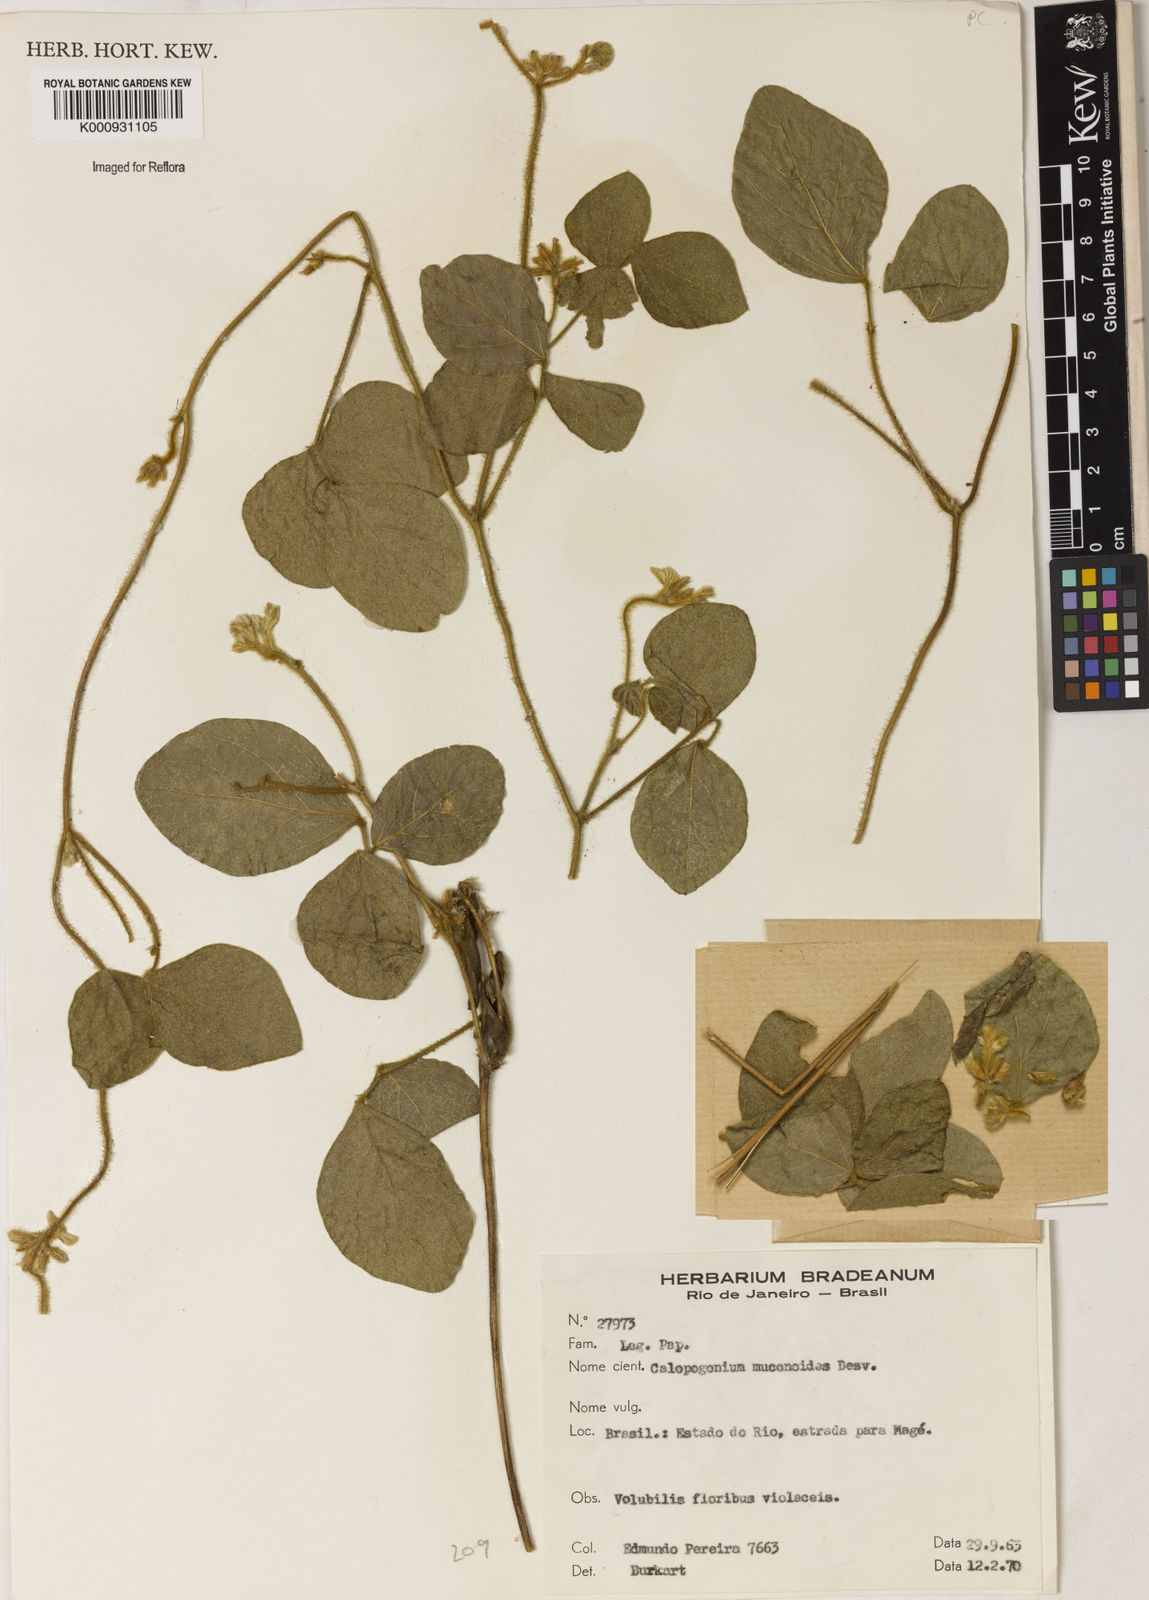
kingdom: Plantae
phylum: Tracheophyta
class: Magnoliopsida
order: Fabales
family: Fabaceae
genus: Calopogonium
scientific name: Calopogonium mucunoides
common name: Calopo
